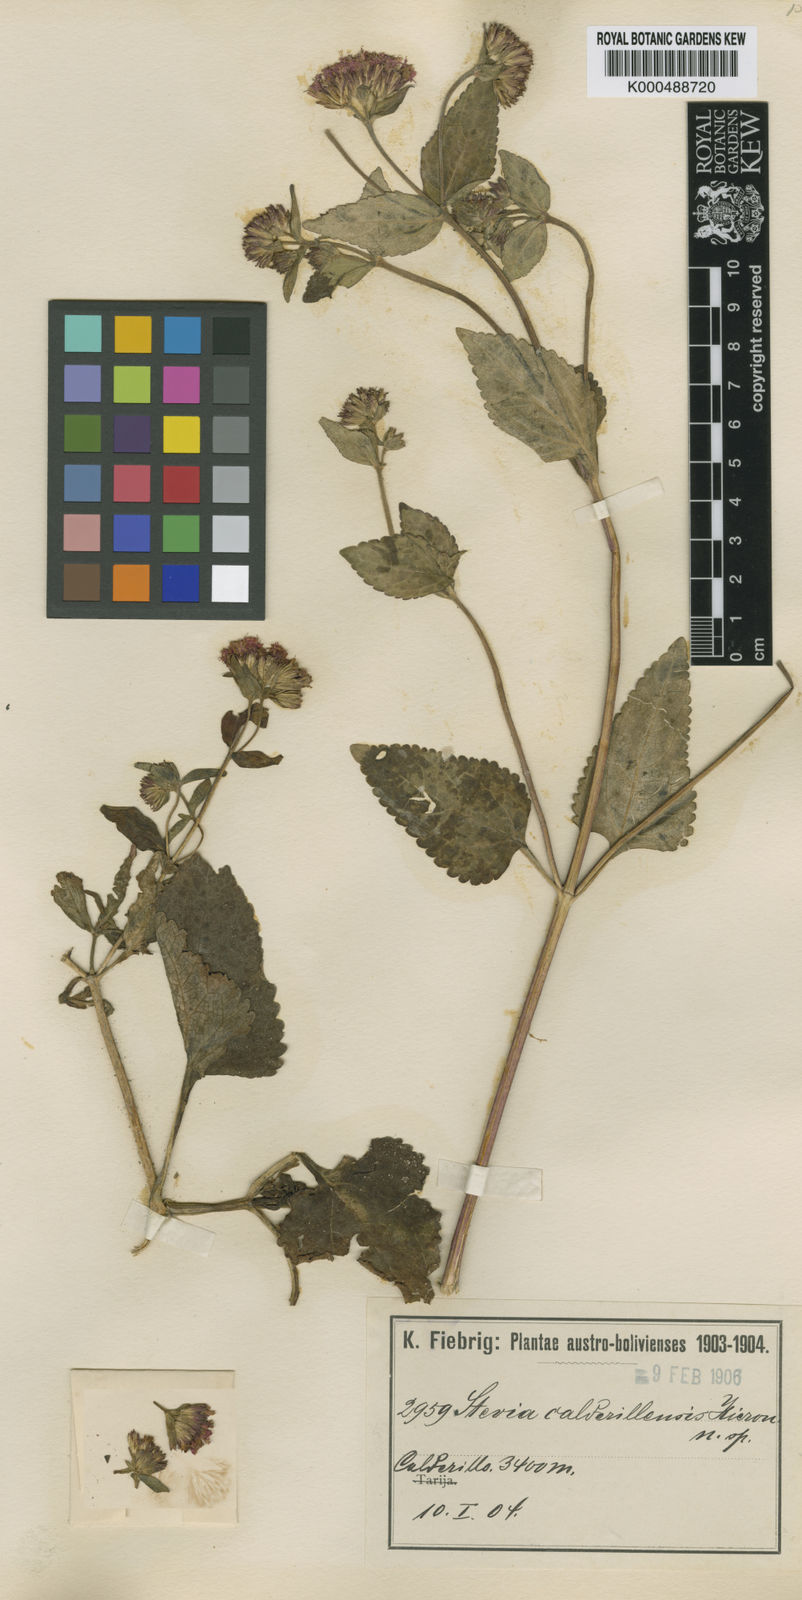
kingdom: Plantae
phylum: Tracheophyta
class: Magnoliopsida
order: Asterales
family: Asteraceae
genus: Stevia
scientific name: Stevia calderillensis
